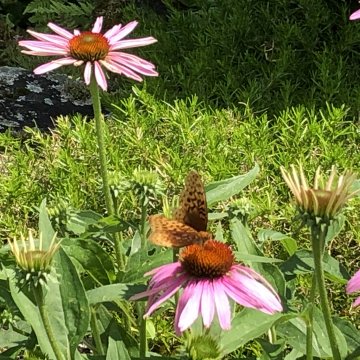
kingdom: Animalia
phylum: Arthropoda
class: Insecta
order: Lepidoptera
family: Nymphalidae
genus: Speyeria
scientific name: Speyeria aphrodite
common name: Aphrodite Fritillary
